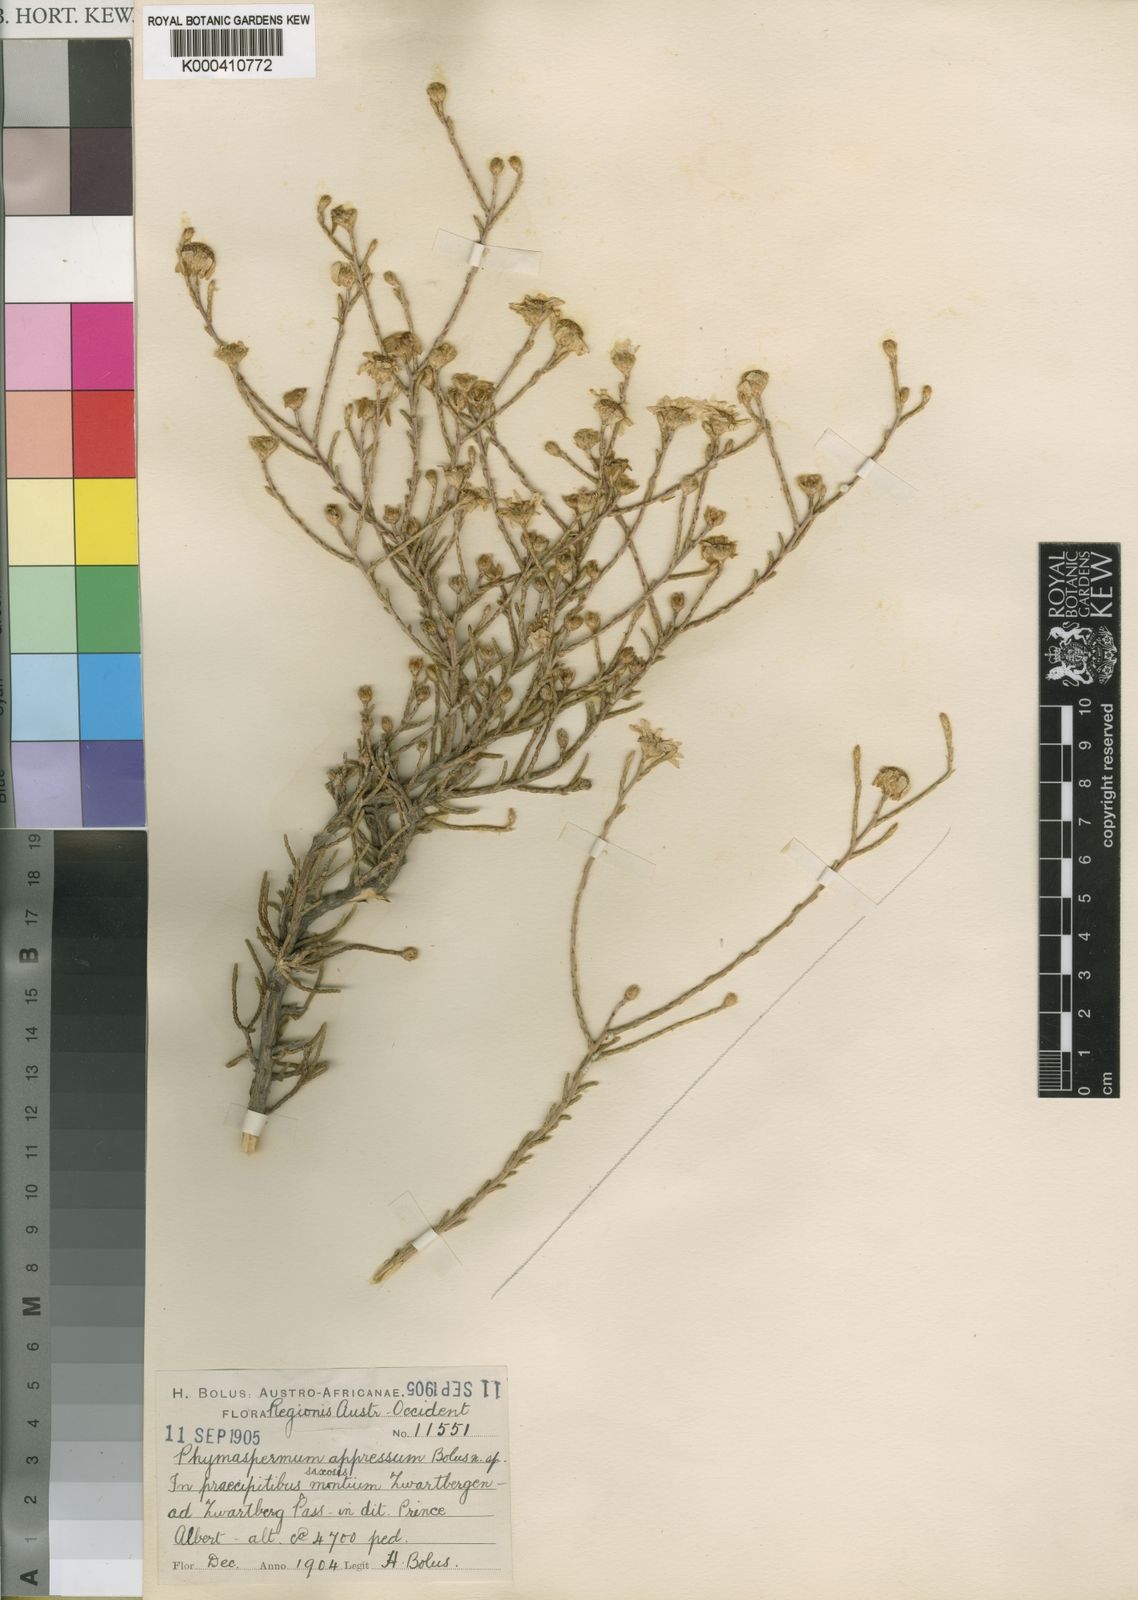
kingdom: Plantae
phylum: Tracheophyta
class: Magnoliopsida
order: Asterales
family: Asteraceae
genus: Phymaspermum
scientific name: Phymaspermum appressum
